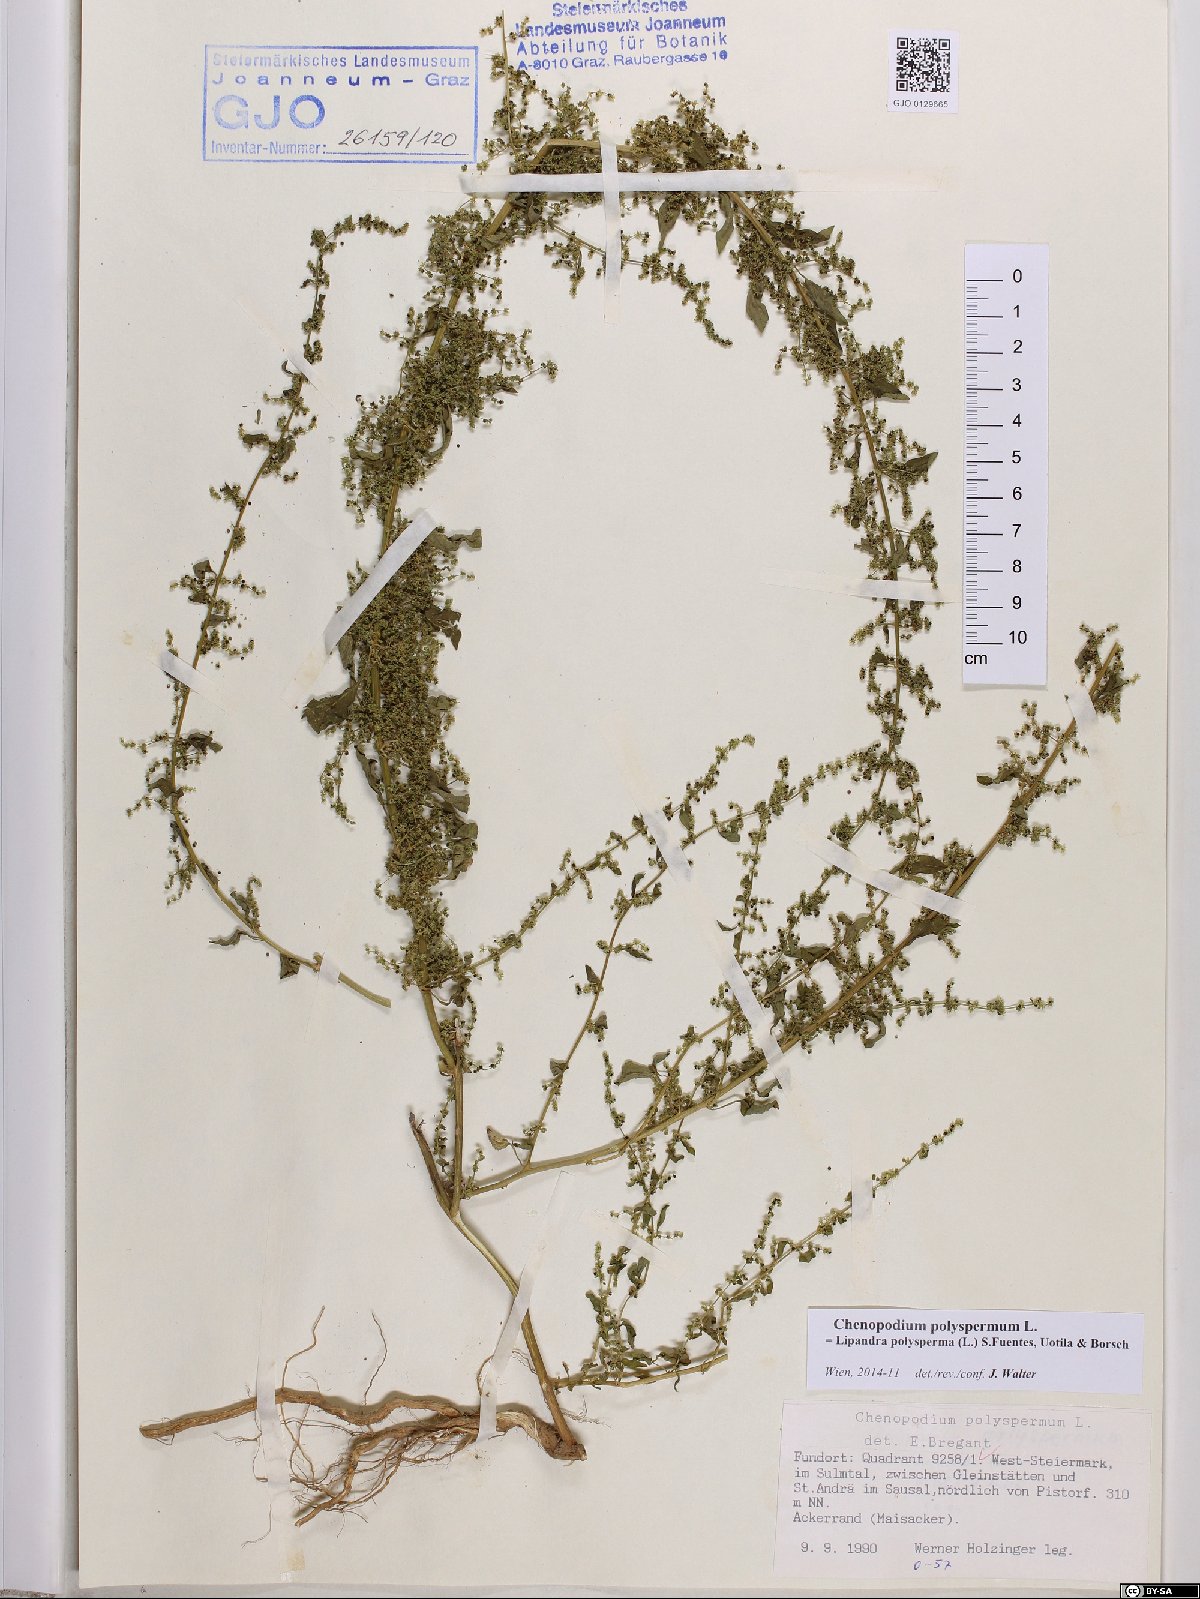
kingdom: Plantae
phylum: Tracheophyta
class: Magnoliopsida
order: Caryophyllales
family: Amaranthaceae
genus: Lipandra
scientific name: Lipandra polysperma
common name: Many-seed goosefoot
